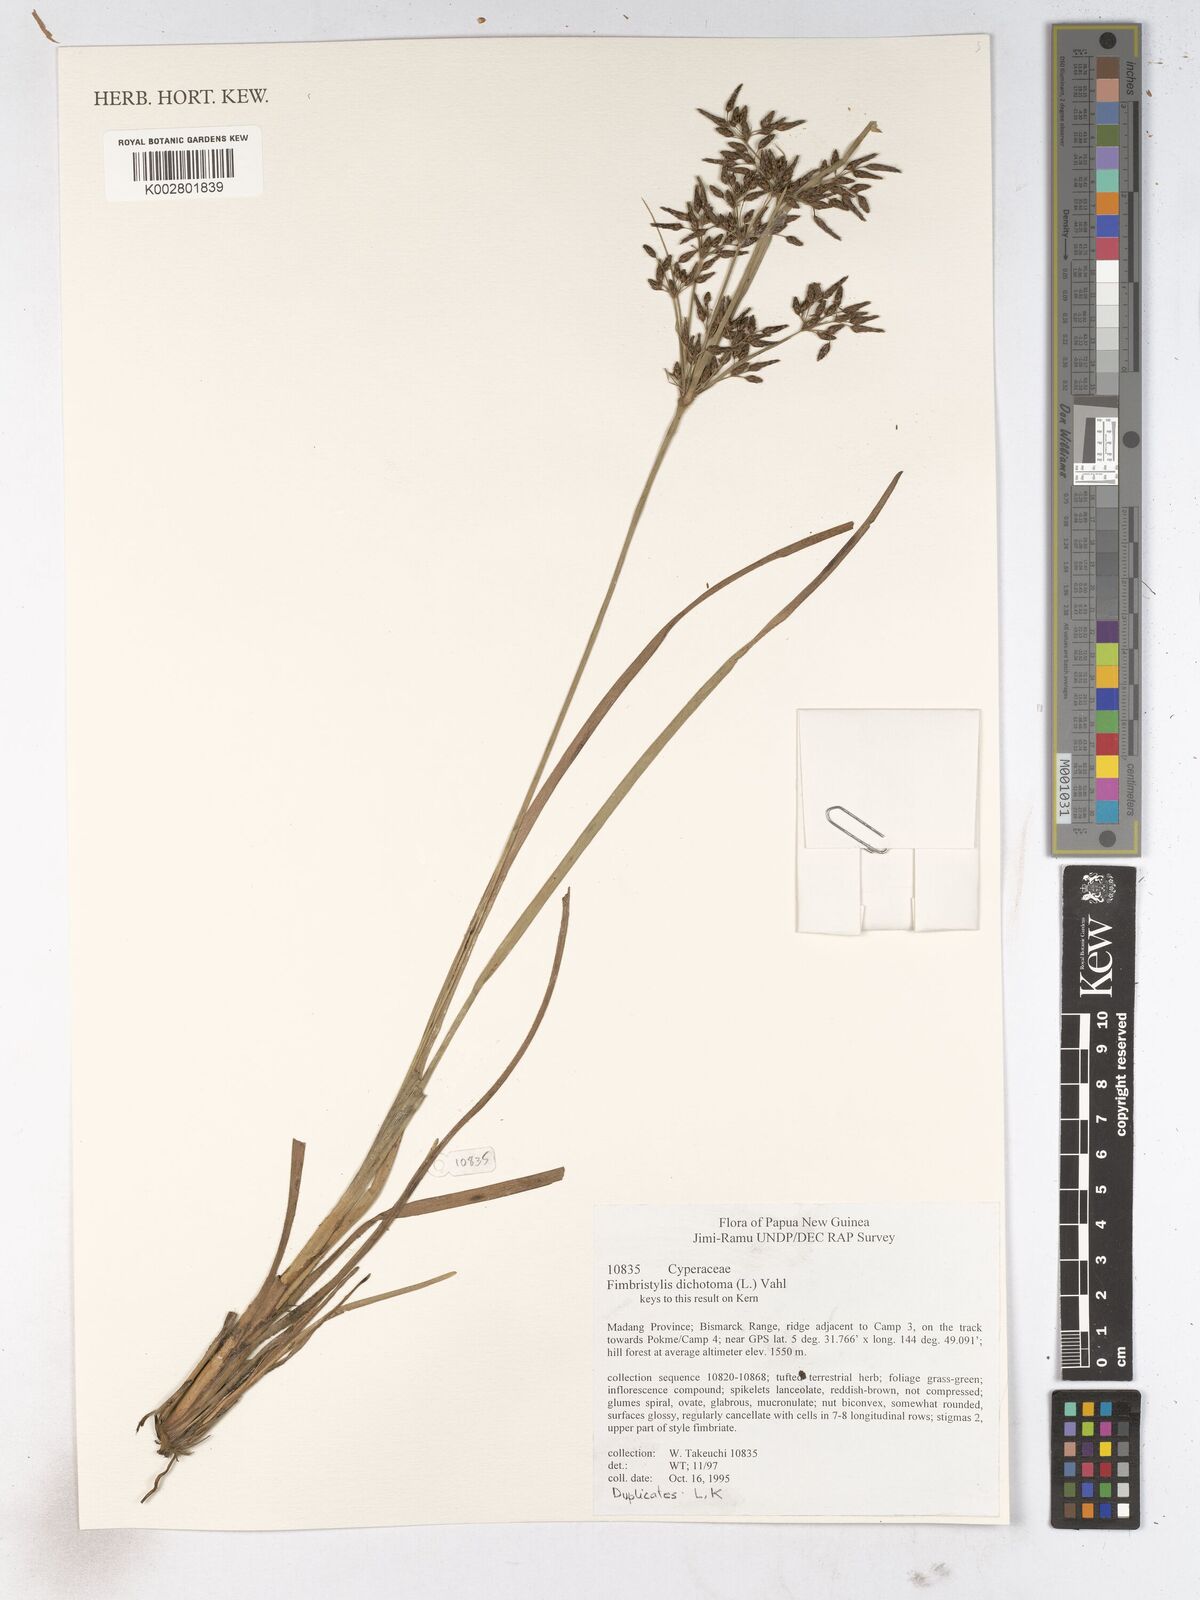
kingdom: Plantae
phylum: Tracheophyta
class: Liliopsida
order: Poales
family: Cyperaceae
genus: Fimbristylis
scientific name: Fimbristylis dichotoma
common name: Forked fimbry
